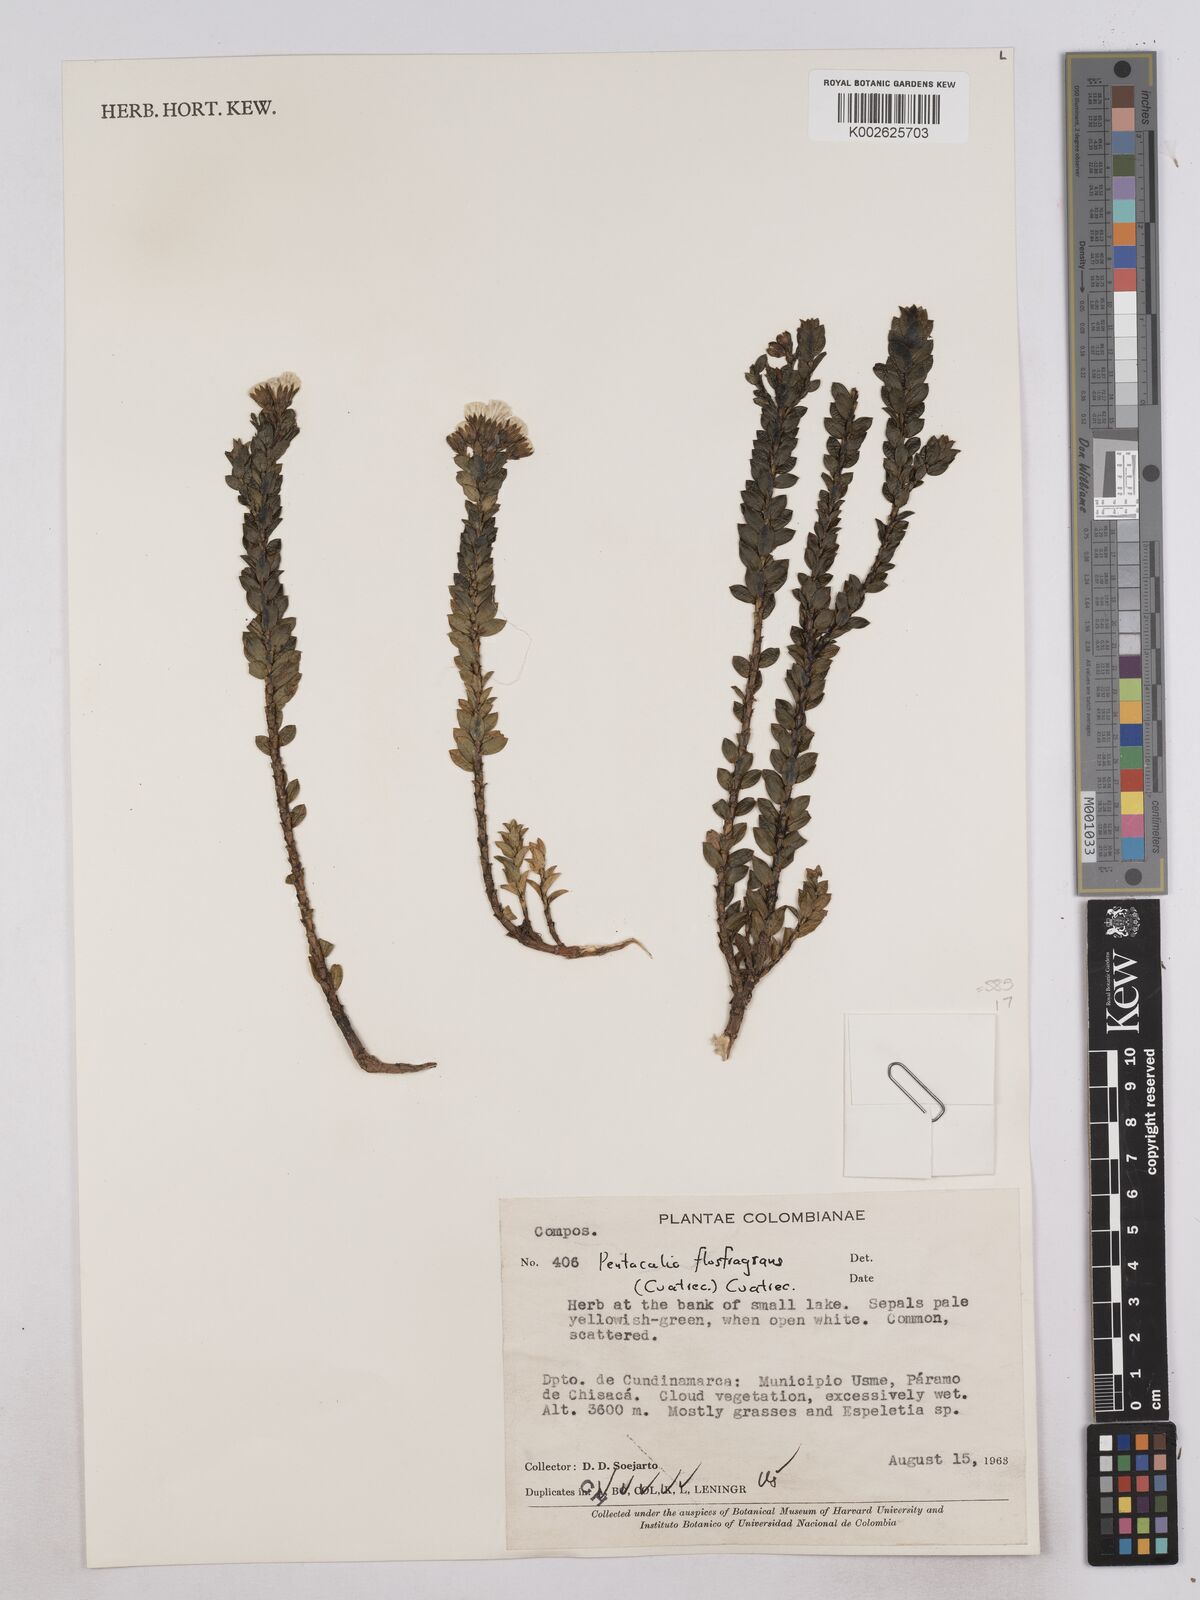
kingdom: Plantae
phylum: Tracheophyta
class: Magnoliopsida
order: Asterales
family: Asteraceae
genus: Monticalia
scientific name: Monticalia flosfragrans
